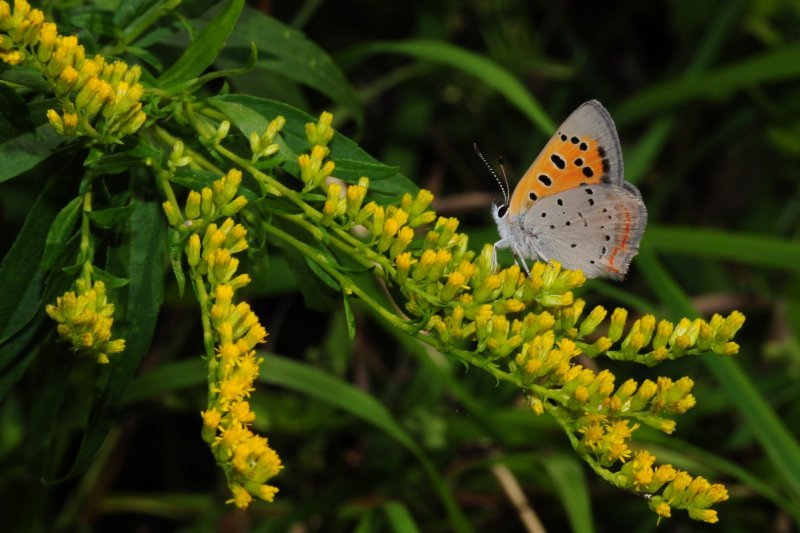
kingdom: Animalia
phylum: Arthropoda
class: Insecta
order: Lepidoptera
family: Lycaenidae
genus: Lycaena
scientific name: Lycaena phlaeas
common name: American Copper
